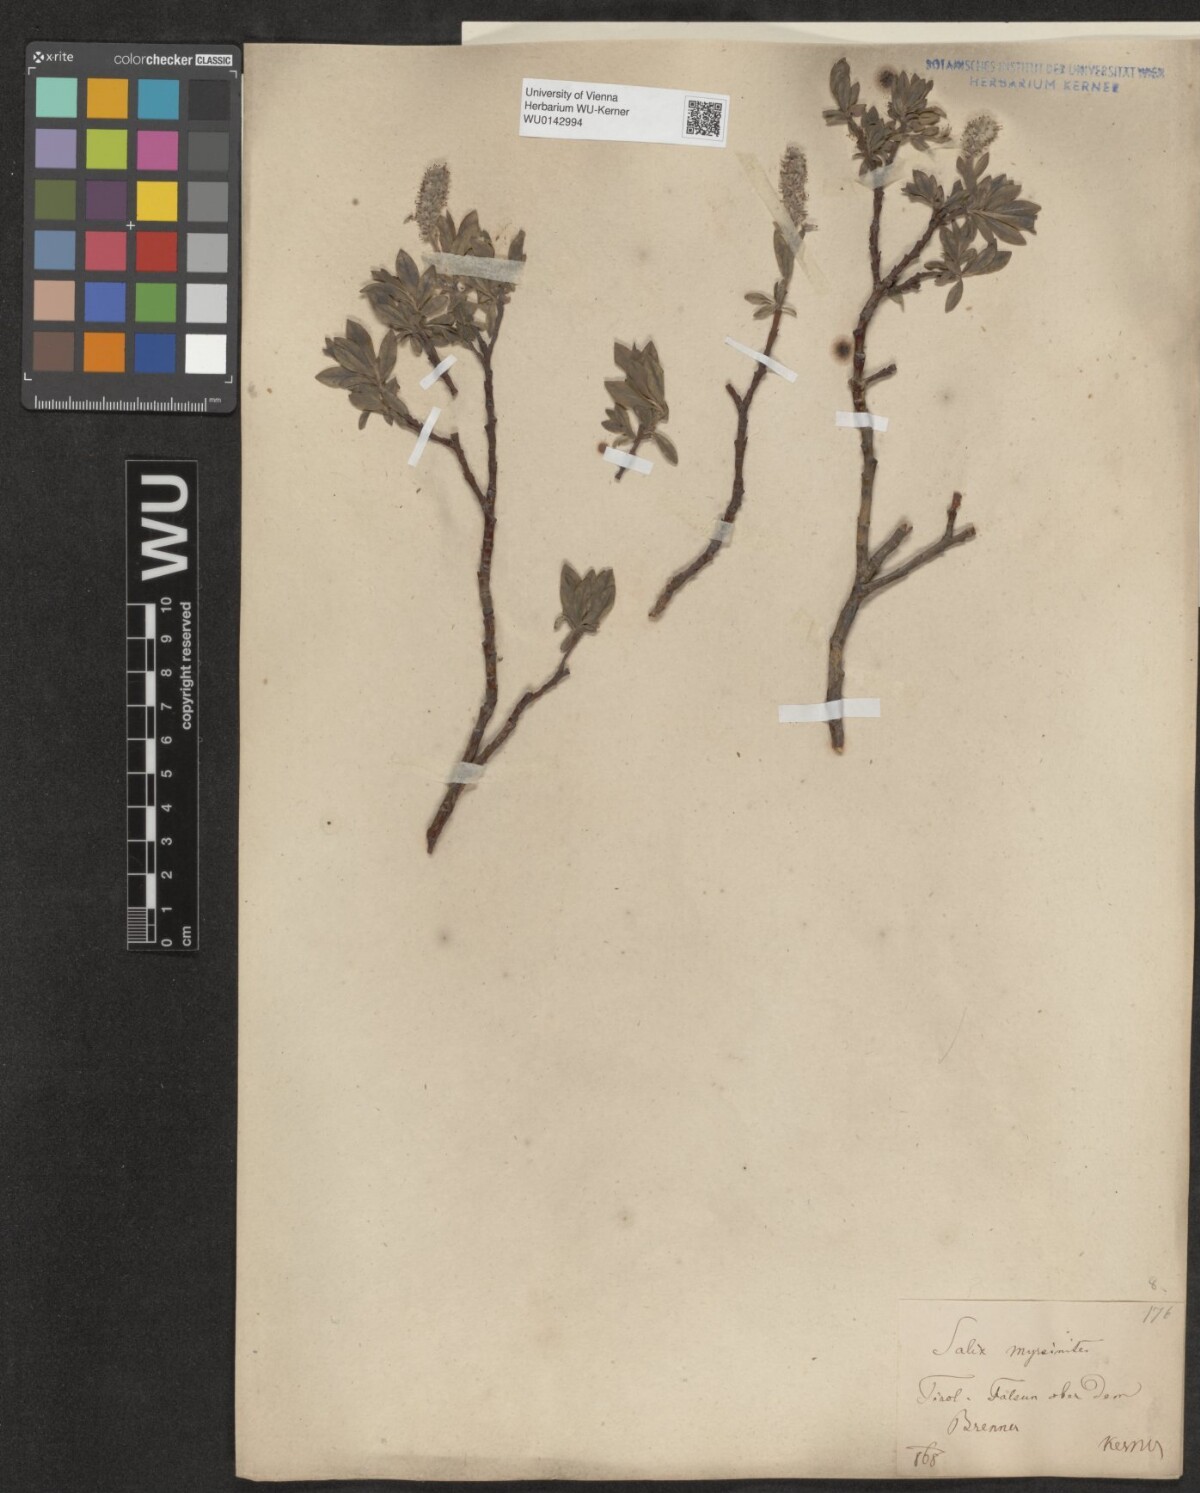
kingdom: Plantae
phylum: Tracheophyta
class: Magnoliopsida
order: Malpighiales
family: Salicaceae
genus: Salix
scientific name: Salix myrsinites
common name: Myrtle willow
